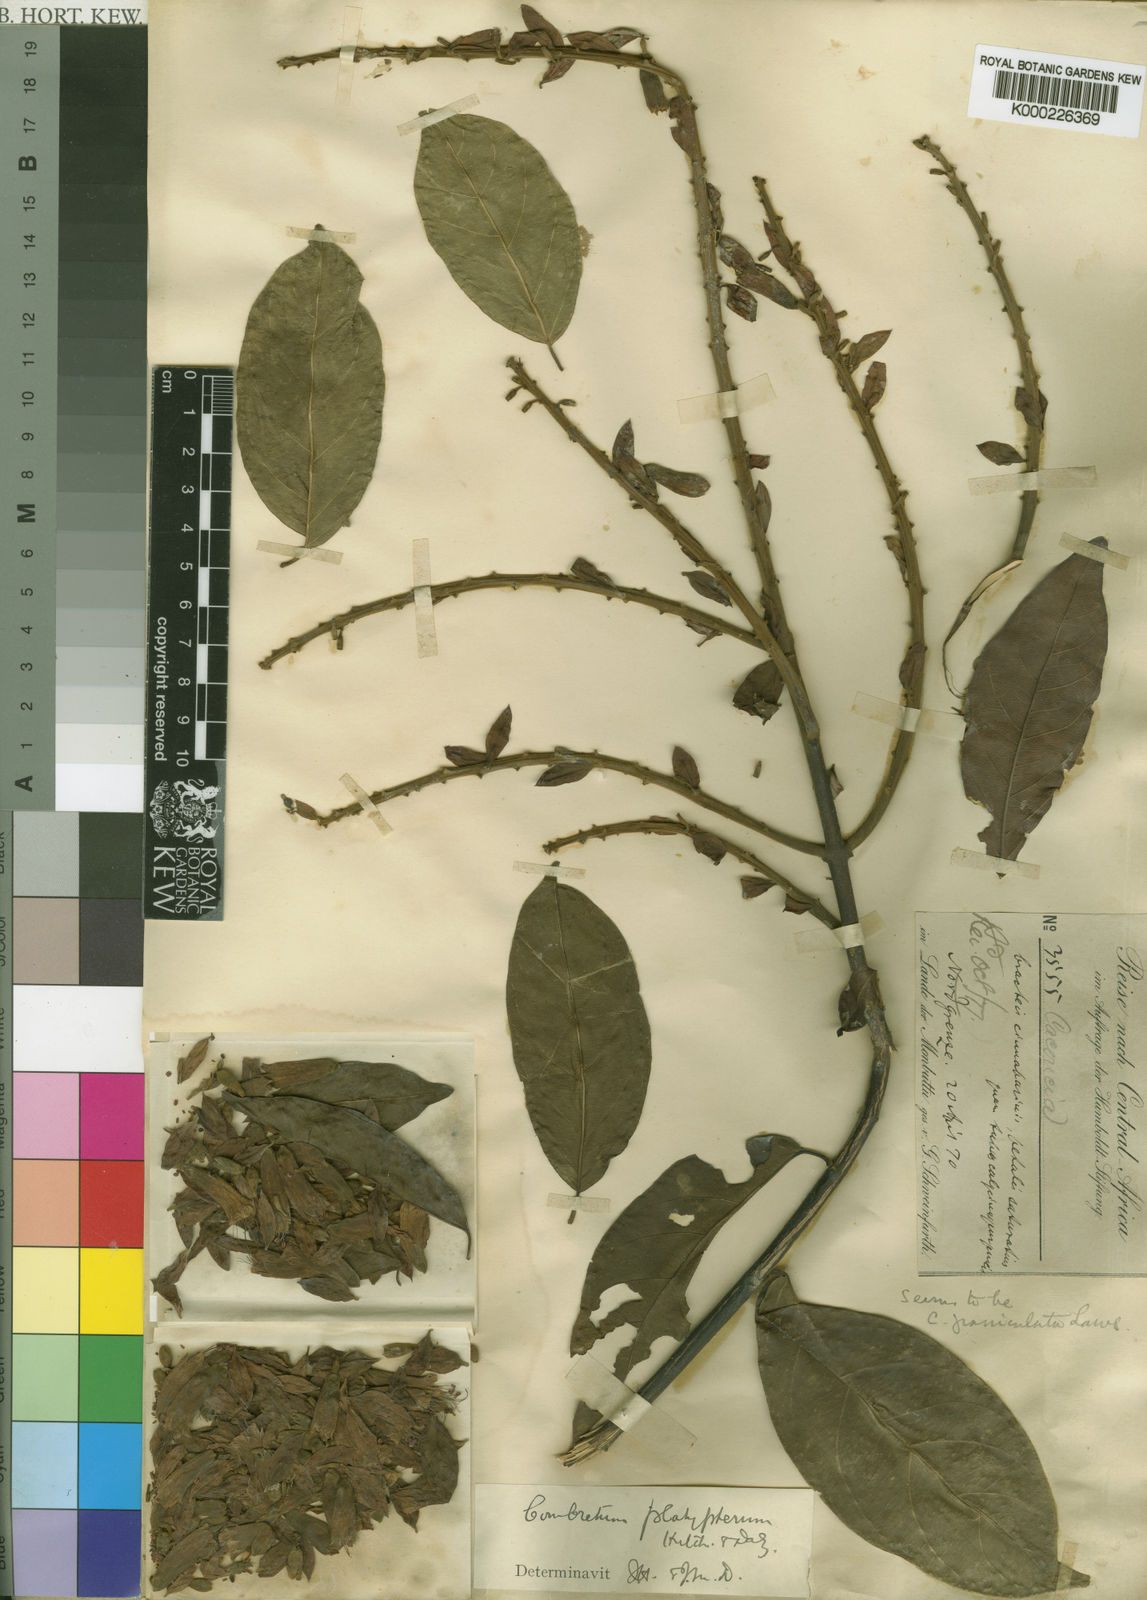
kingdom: Plantae
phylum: Tracheophyta
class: Magnoliopsida
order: Myrtales
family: Combretaceae
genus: Combretum
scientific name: Combretum platypterum
